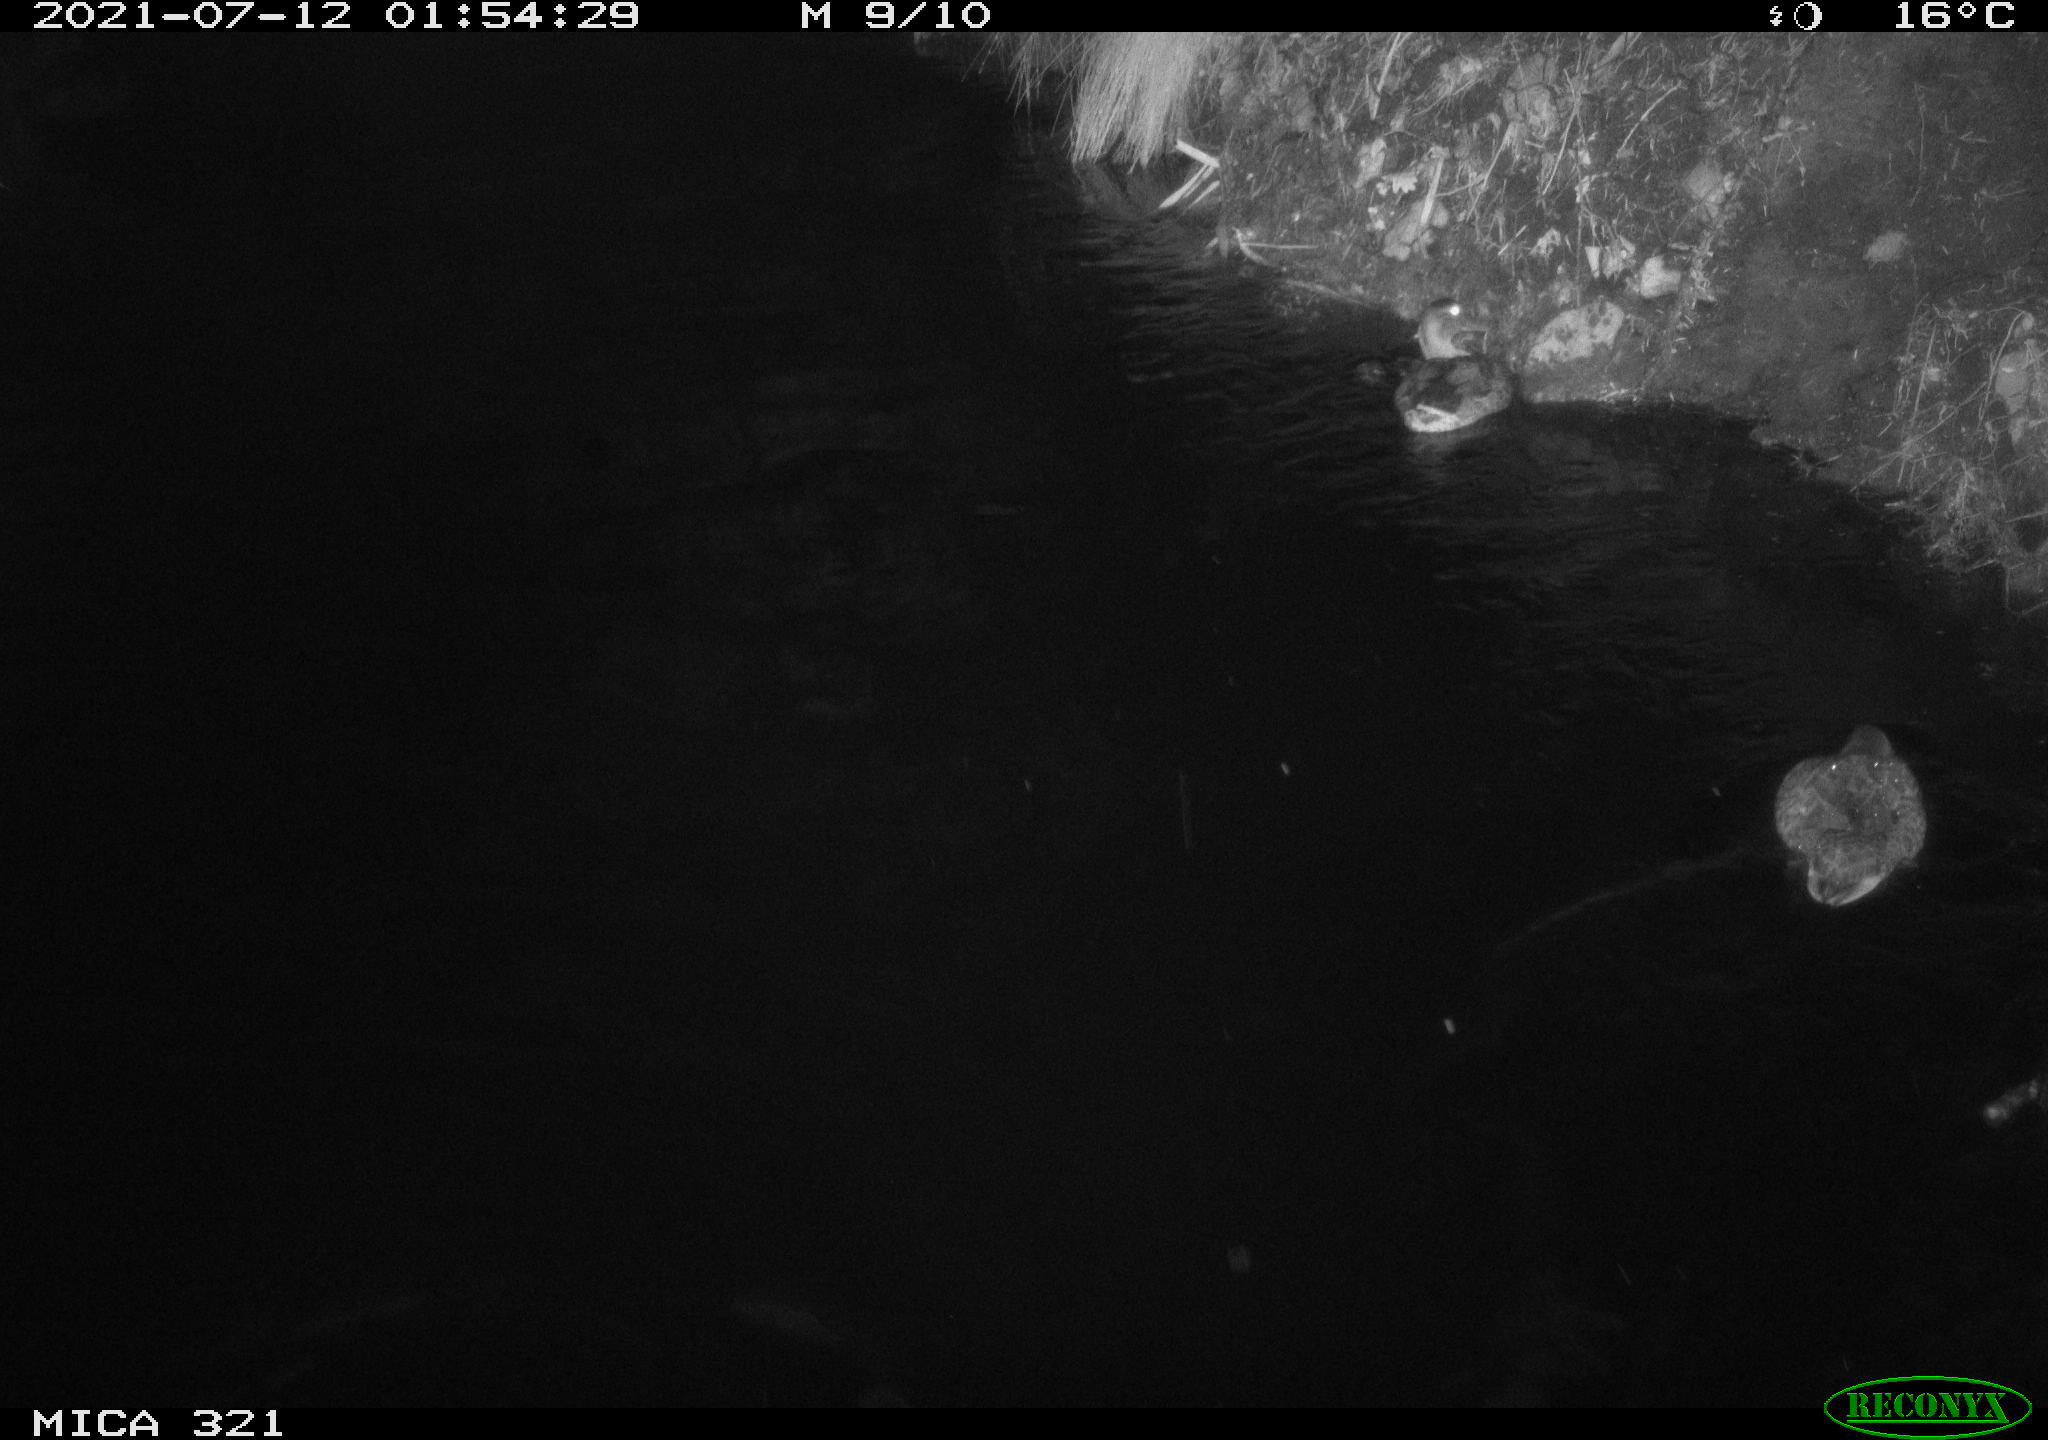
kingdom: Animalia
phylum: Chordata
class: Aves
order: Anseriformes
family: Anatidae
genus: Anas
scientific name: Anas platyrhynchos
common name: Mallard
